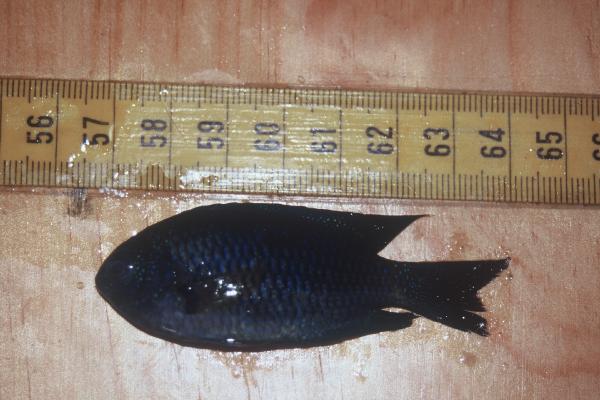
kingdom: Animalia
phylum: Chordata
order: Perciformes
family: Pomacentridae
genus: Pomacentrus
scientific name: Pomacentrus agassizii
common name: Creole damsel
